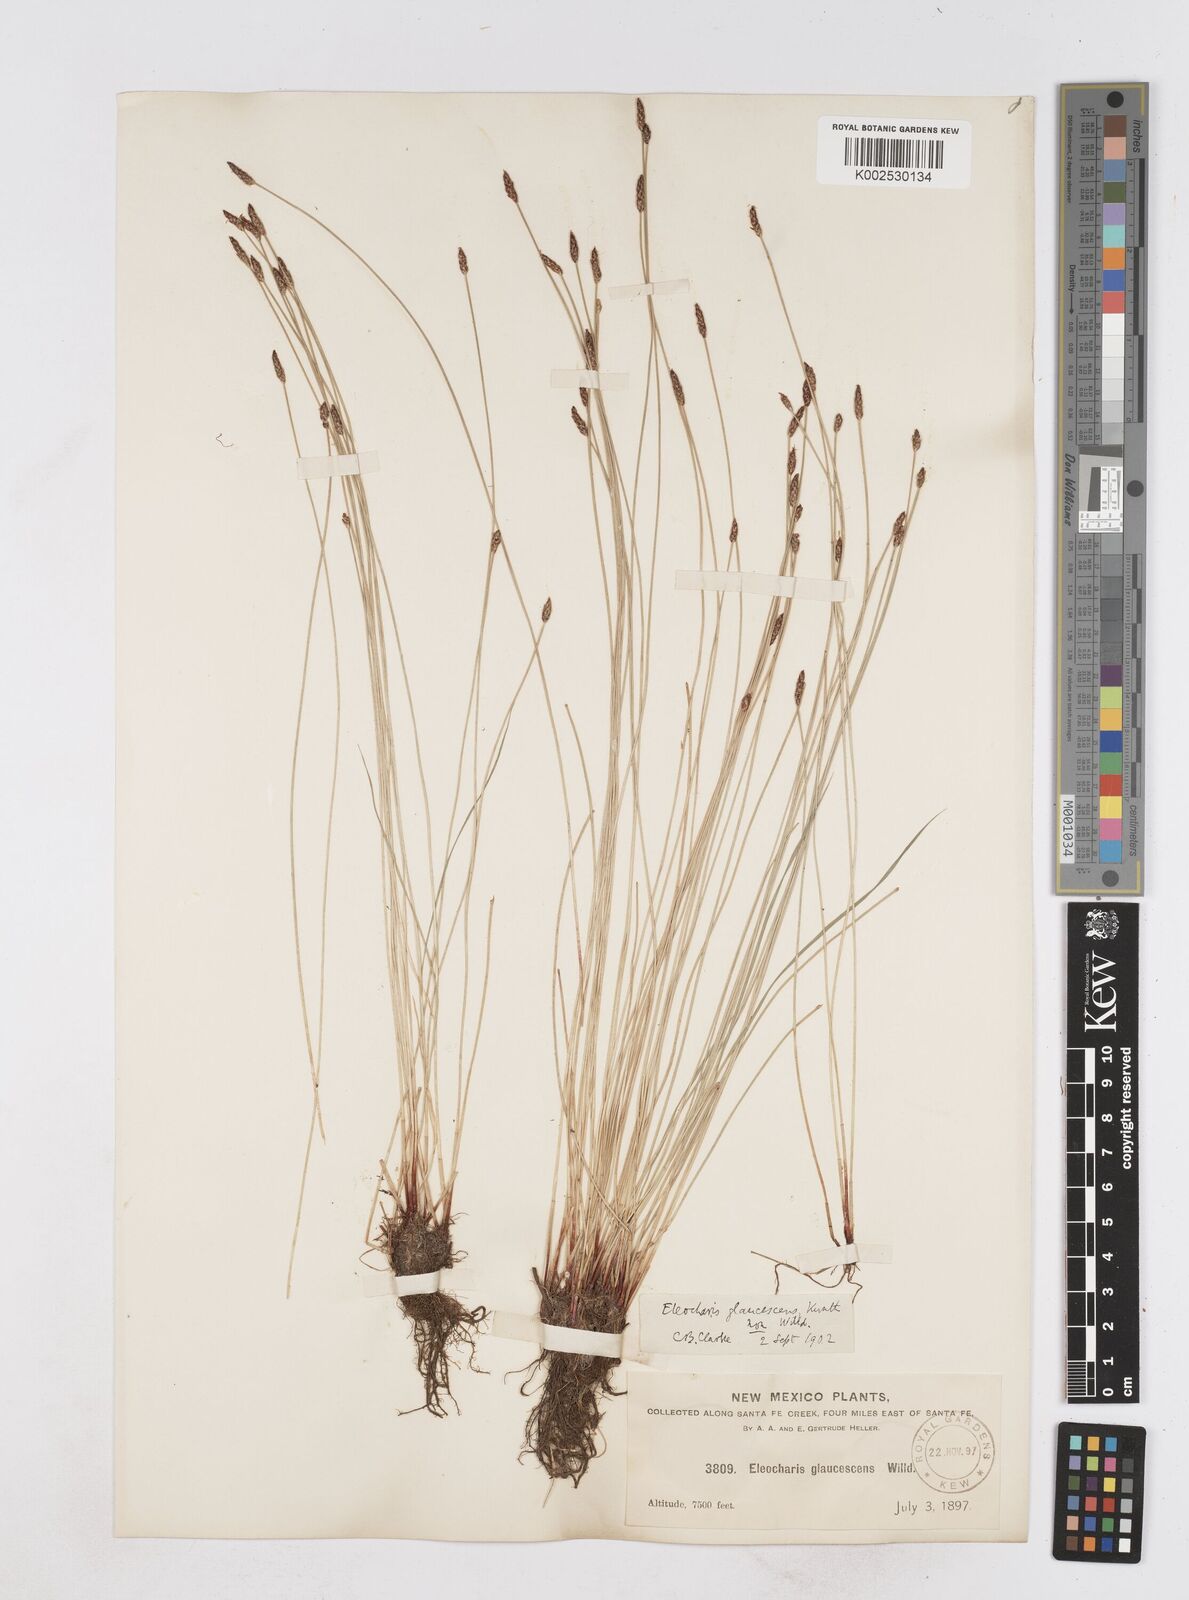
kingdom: Plantae
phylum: Tracheophyta
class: Liliopsida
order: Poales
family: Cyperaceae
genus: Eleocharis
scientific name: Eleocharis erythropoda
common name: Bald spikerush
